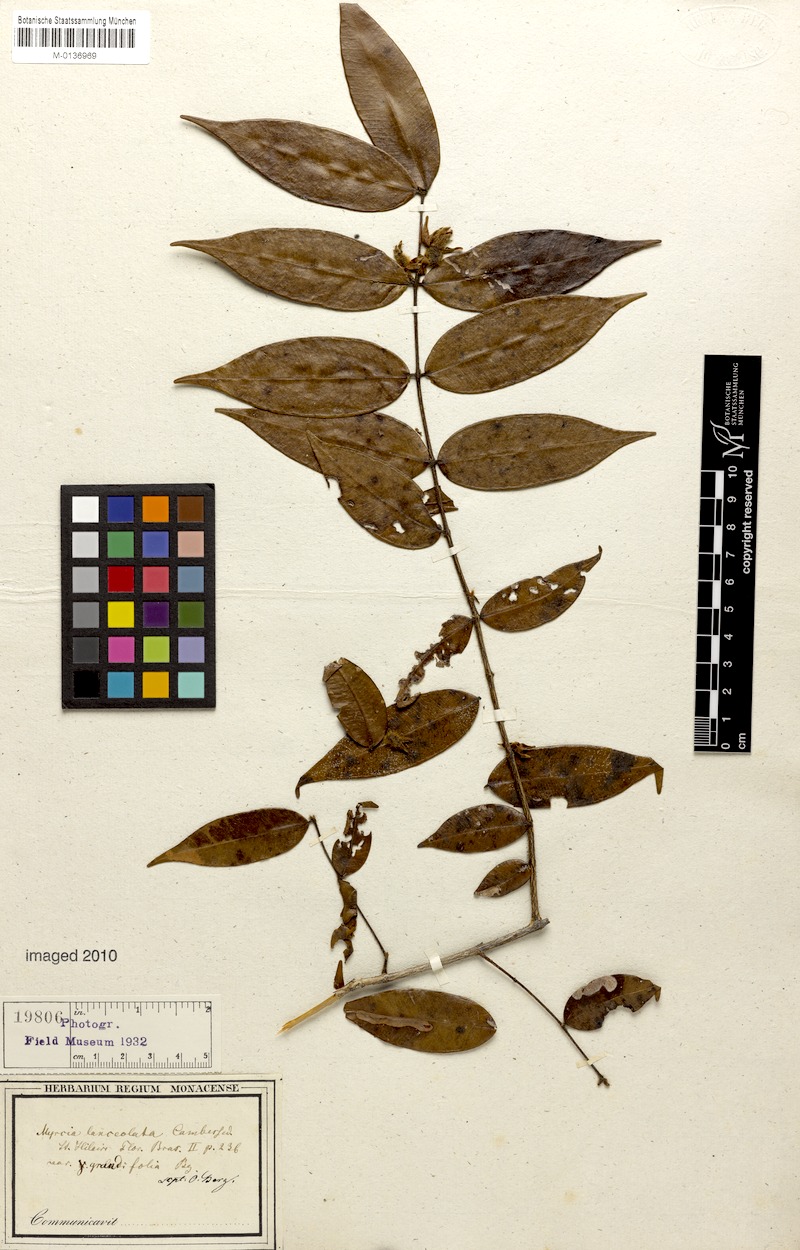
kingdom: Plantae
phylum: Tracheophyta
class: Magnoliopsida
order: Myrtales
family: Myrtaceae
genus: Myrcia
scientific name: Myrcia bracteata
